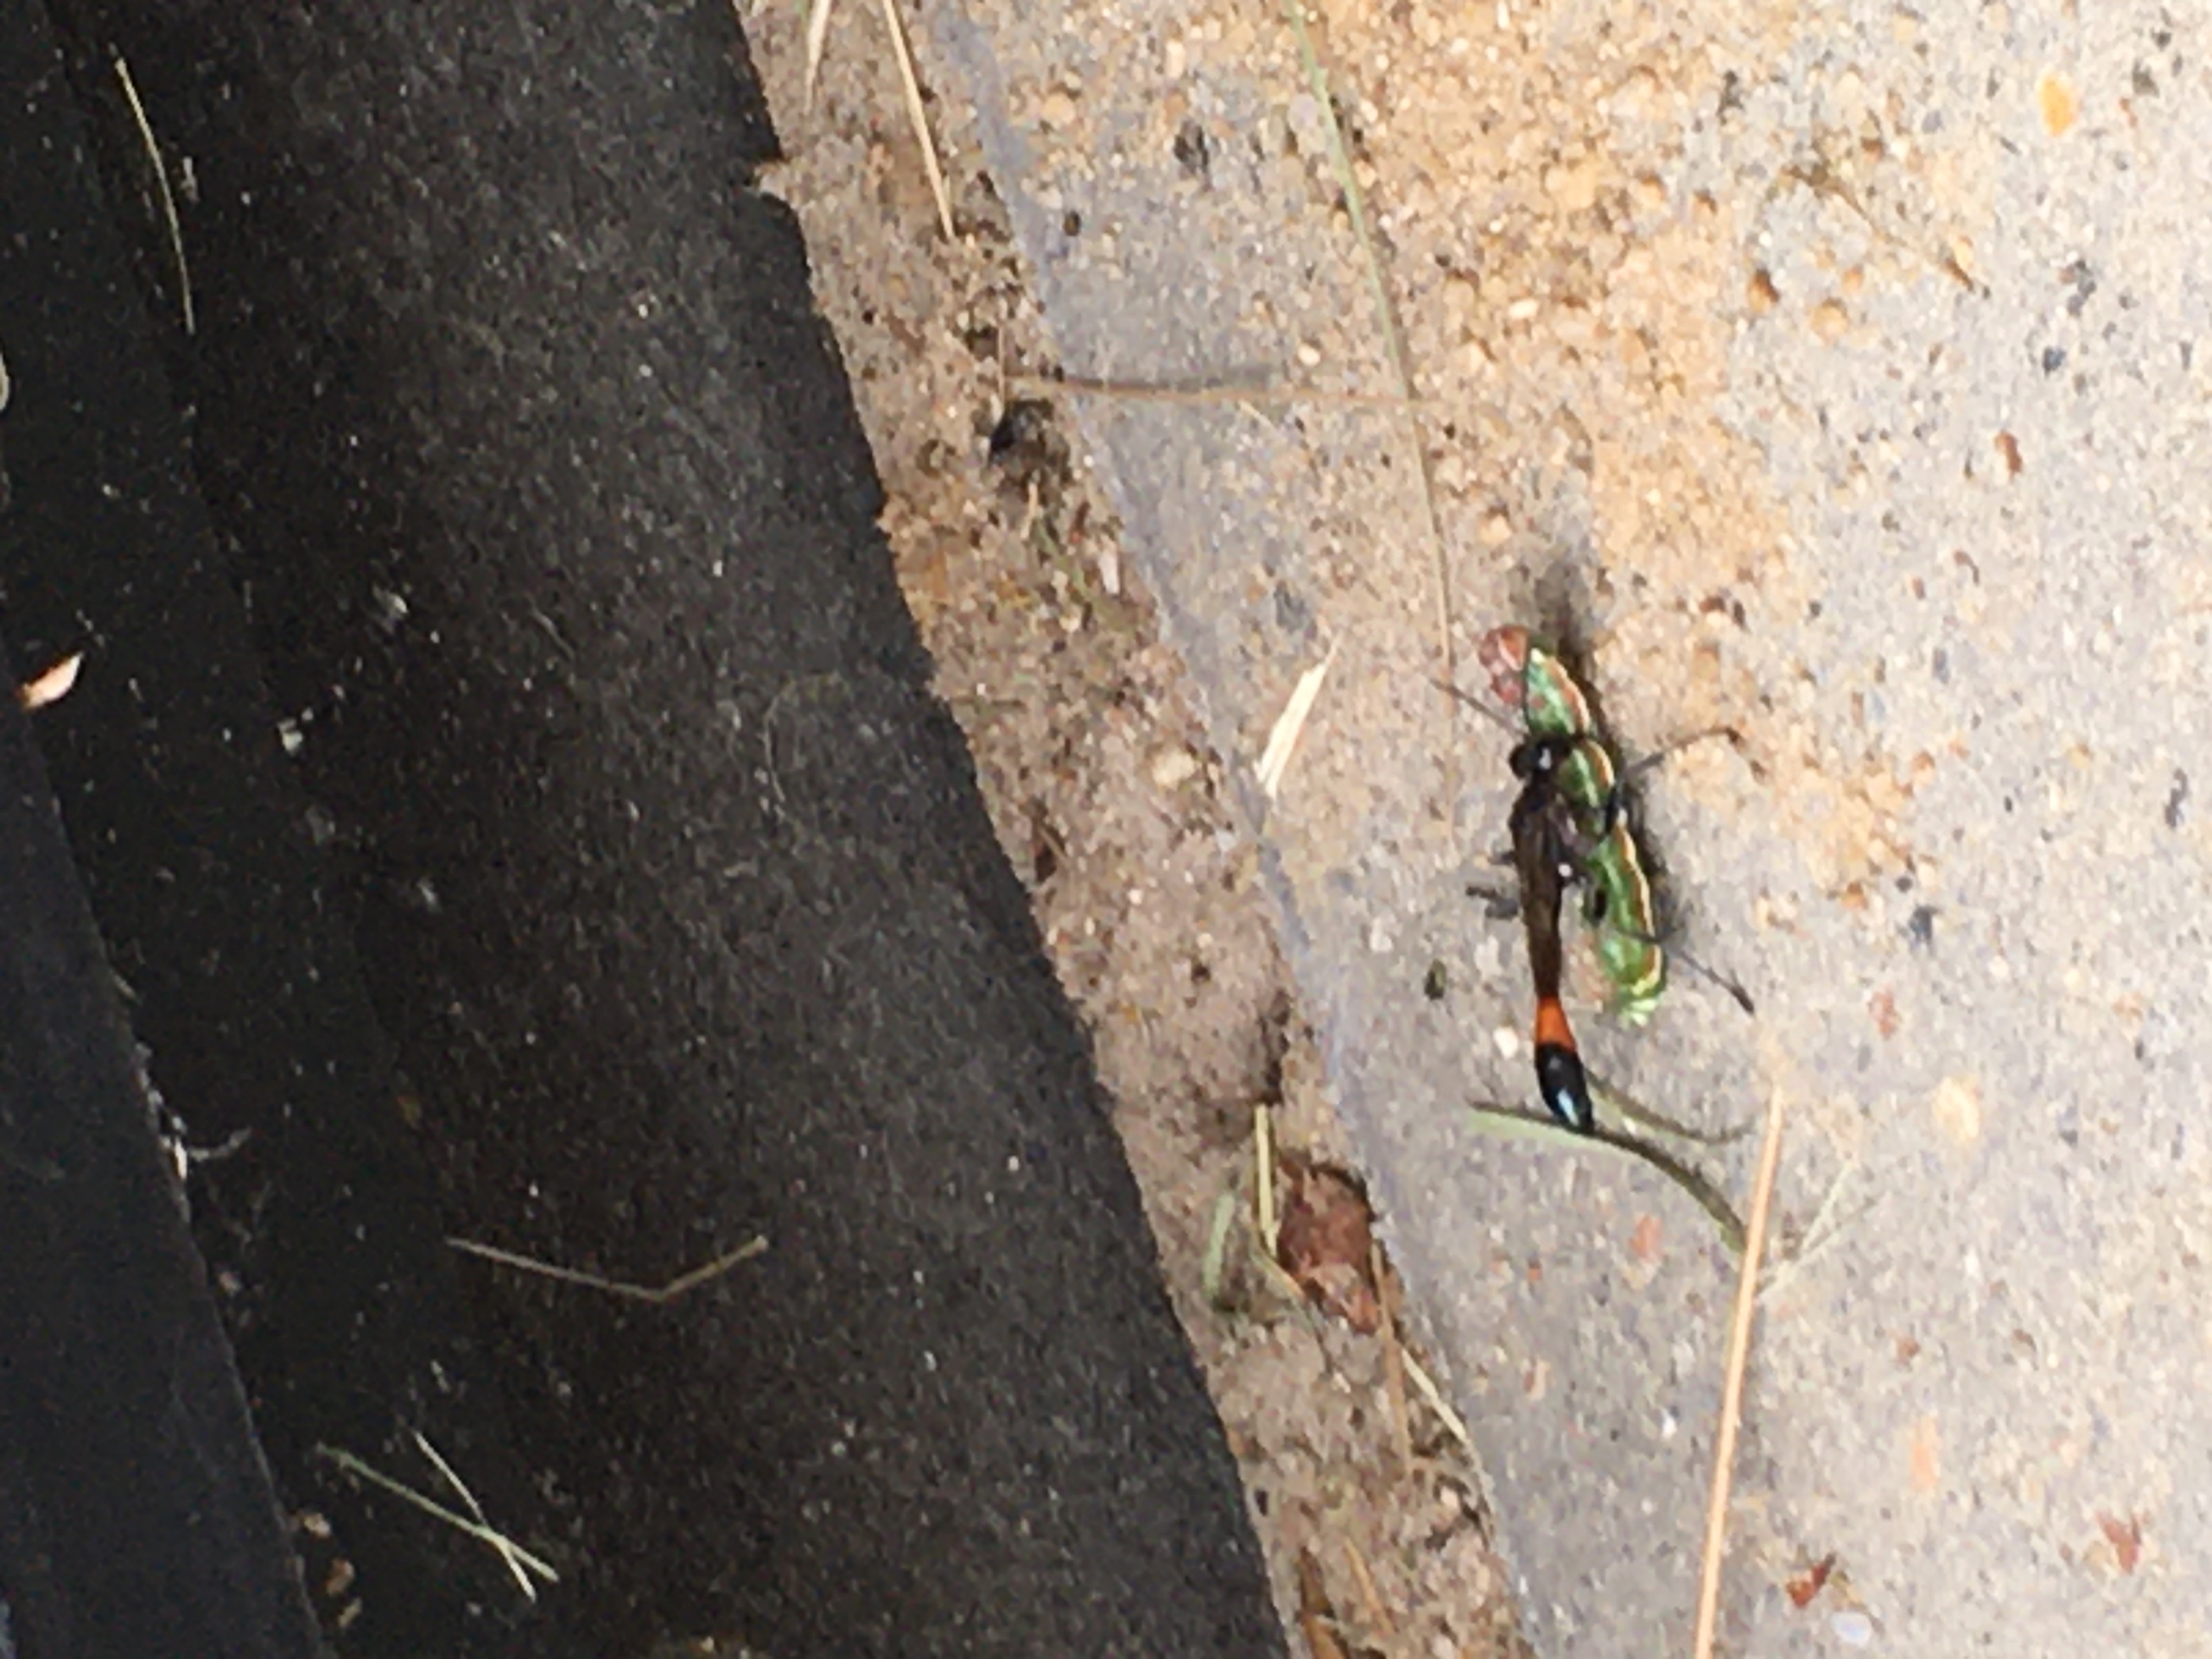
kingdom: Animalia
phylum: Arthropoda
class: Insecta
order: Hymenoptera
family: Sphecidae
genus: Ammophila
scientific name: Ammophila sabulosa
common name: Almindelig sandhveps
